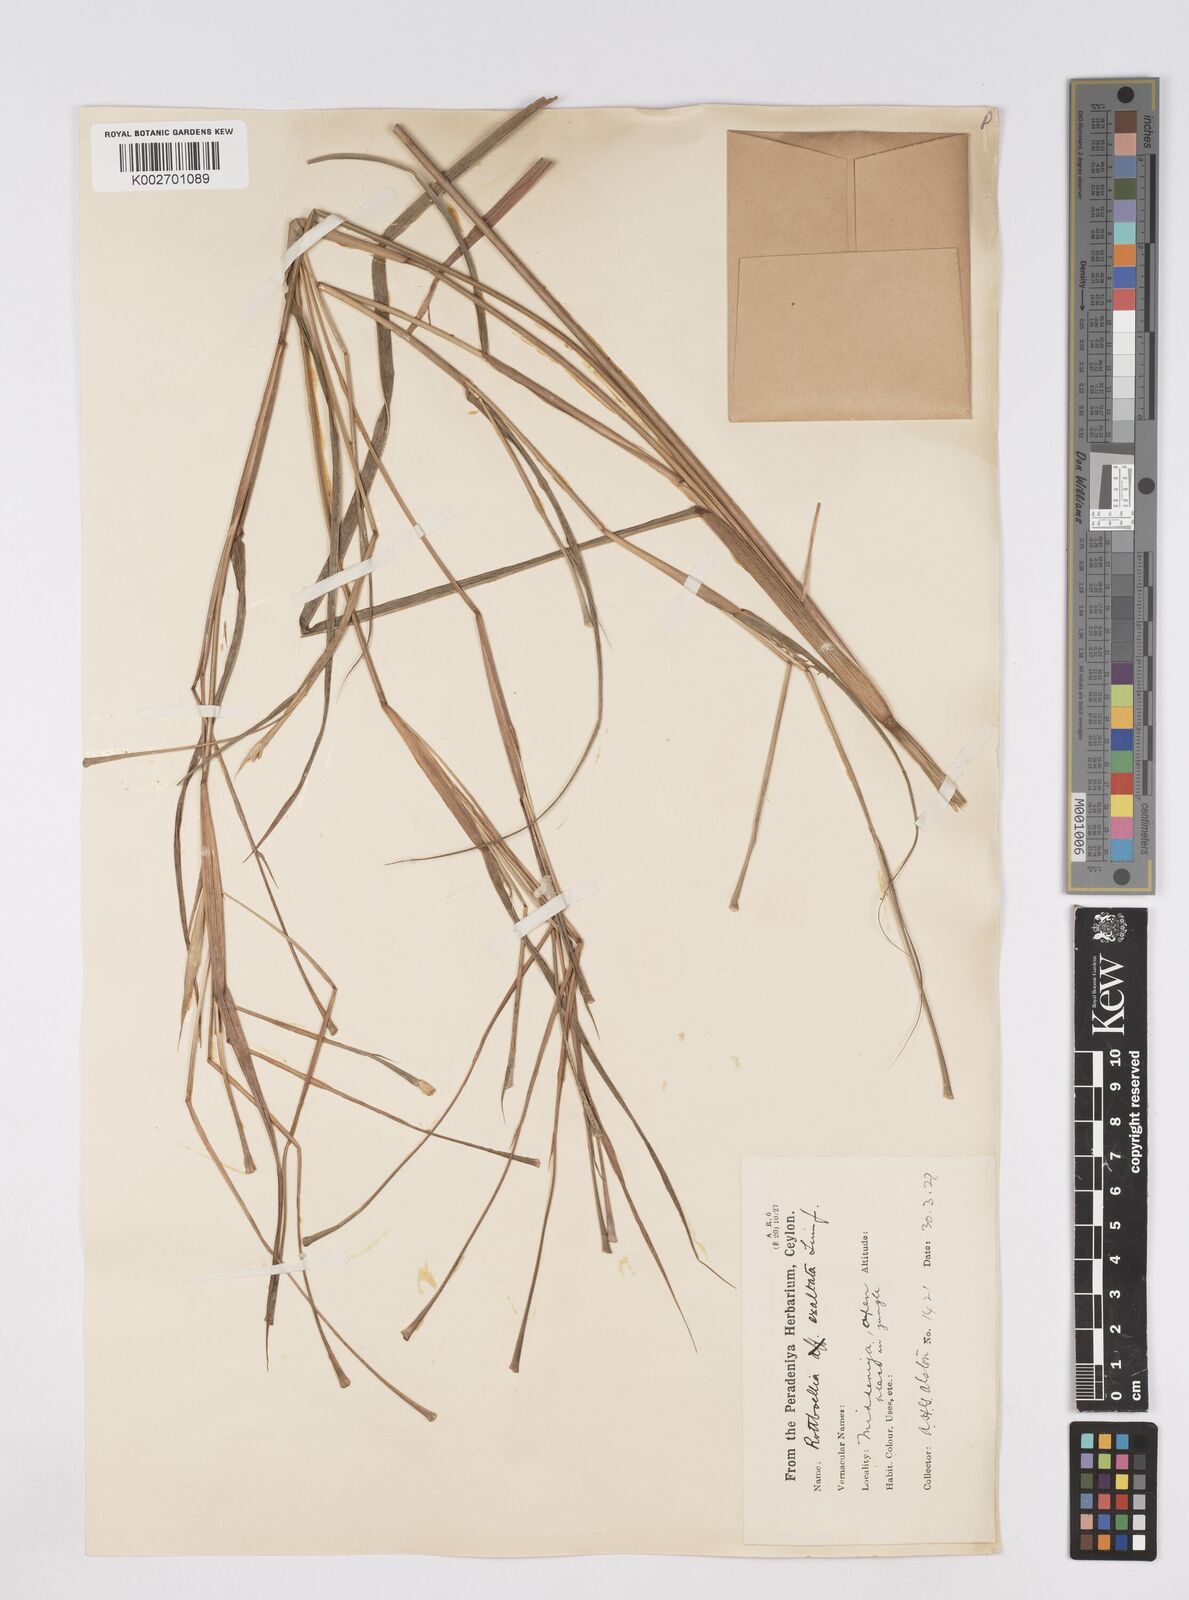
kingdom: Plantae
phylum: Tracheophyta
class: Liliopsida
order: Poales
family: Poaceae
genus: Ophiuros
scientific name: Ophiuros exaltatus
